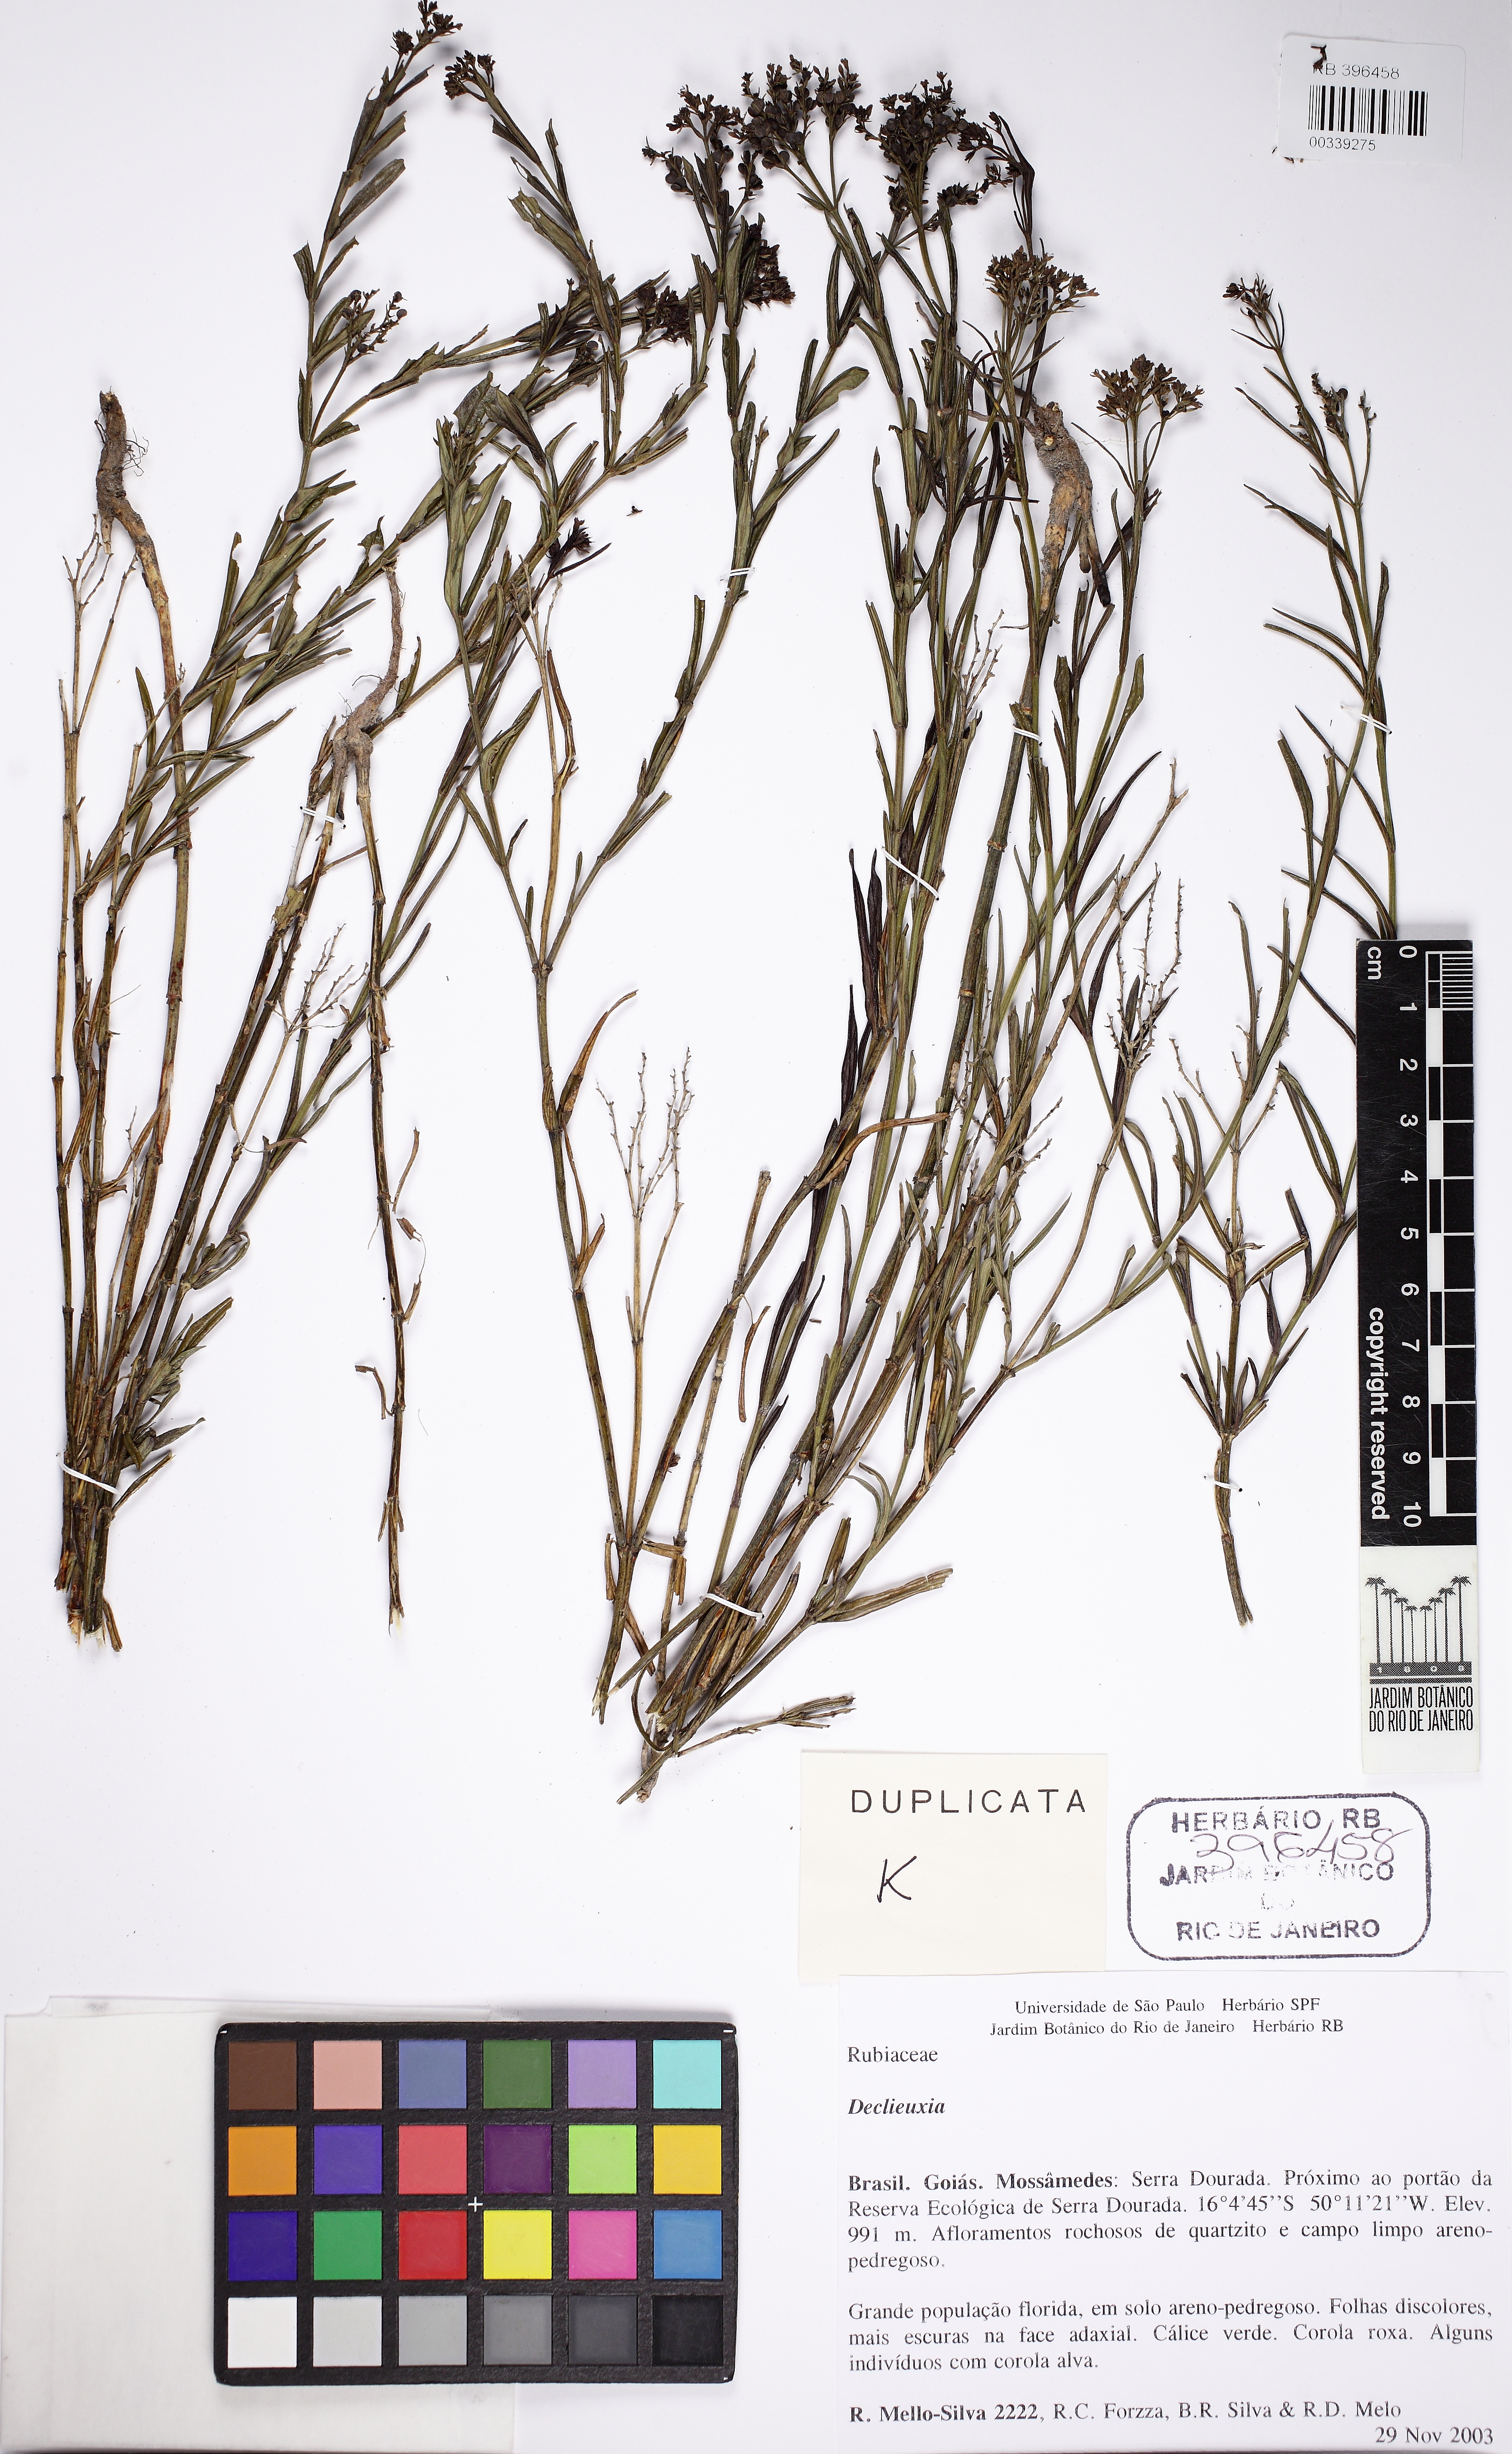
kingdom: Plantae
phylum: Tracheophyta
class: Magnoliopsida
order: Gentianales
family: Rubiaceae
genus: Declieuxia
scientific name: Declieuxia oenanthoides
